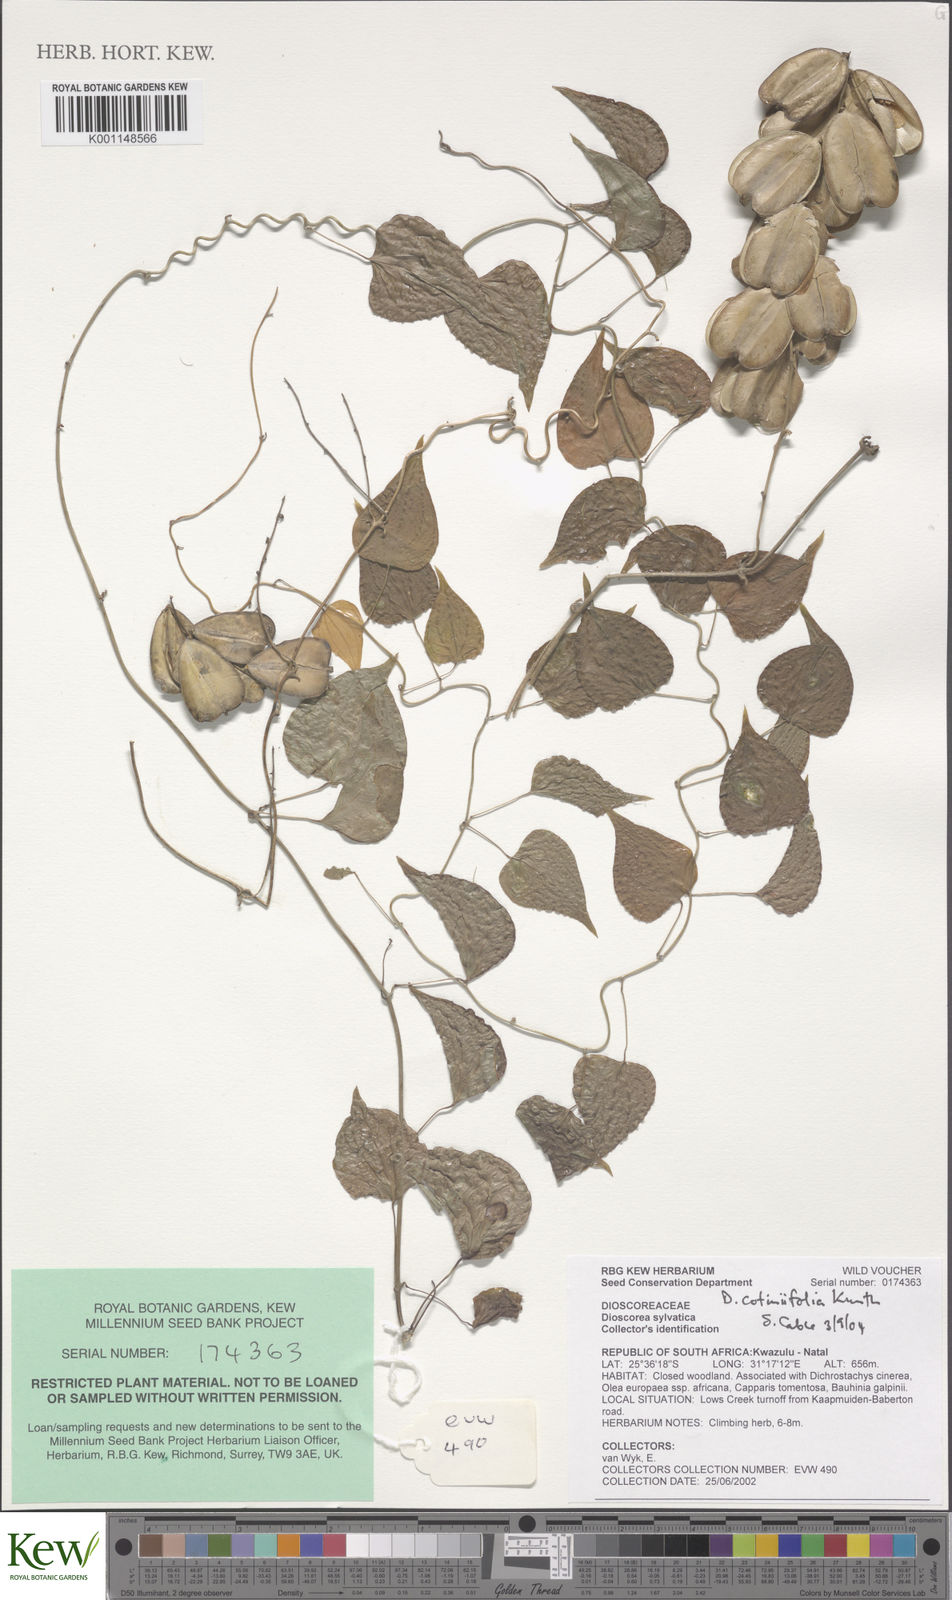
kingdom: Plantae
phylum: Tracheophyta
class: Liliopsida
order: Dioscoreales
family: Dioscoreaceae
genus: Dioscorea
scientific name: Dioscorea cotinifolia
